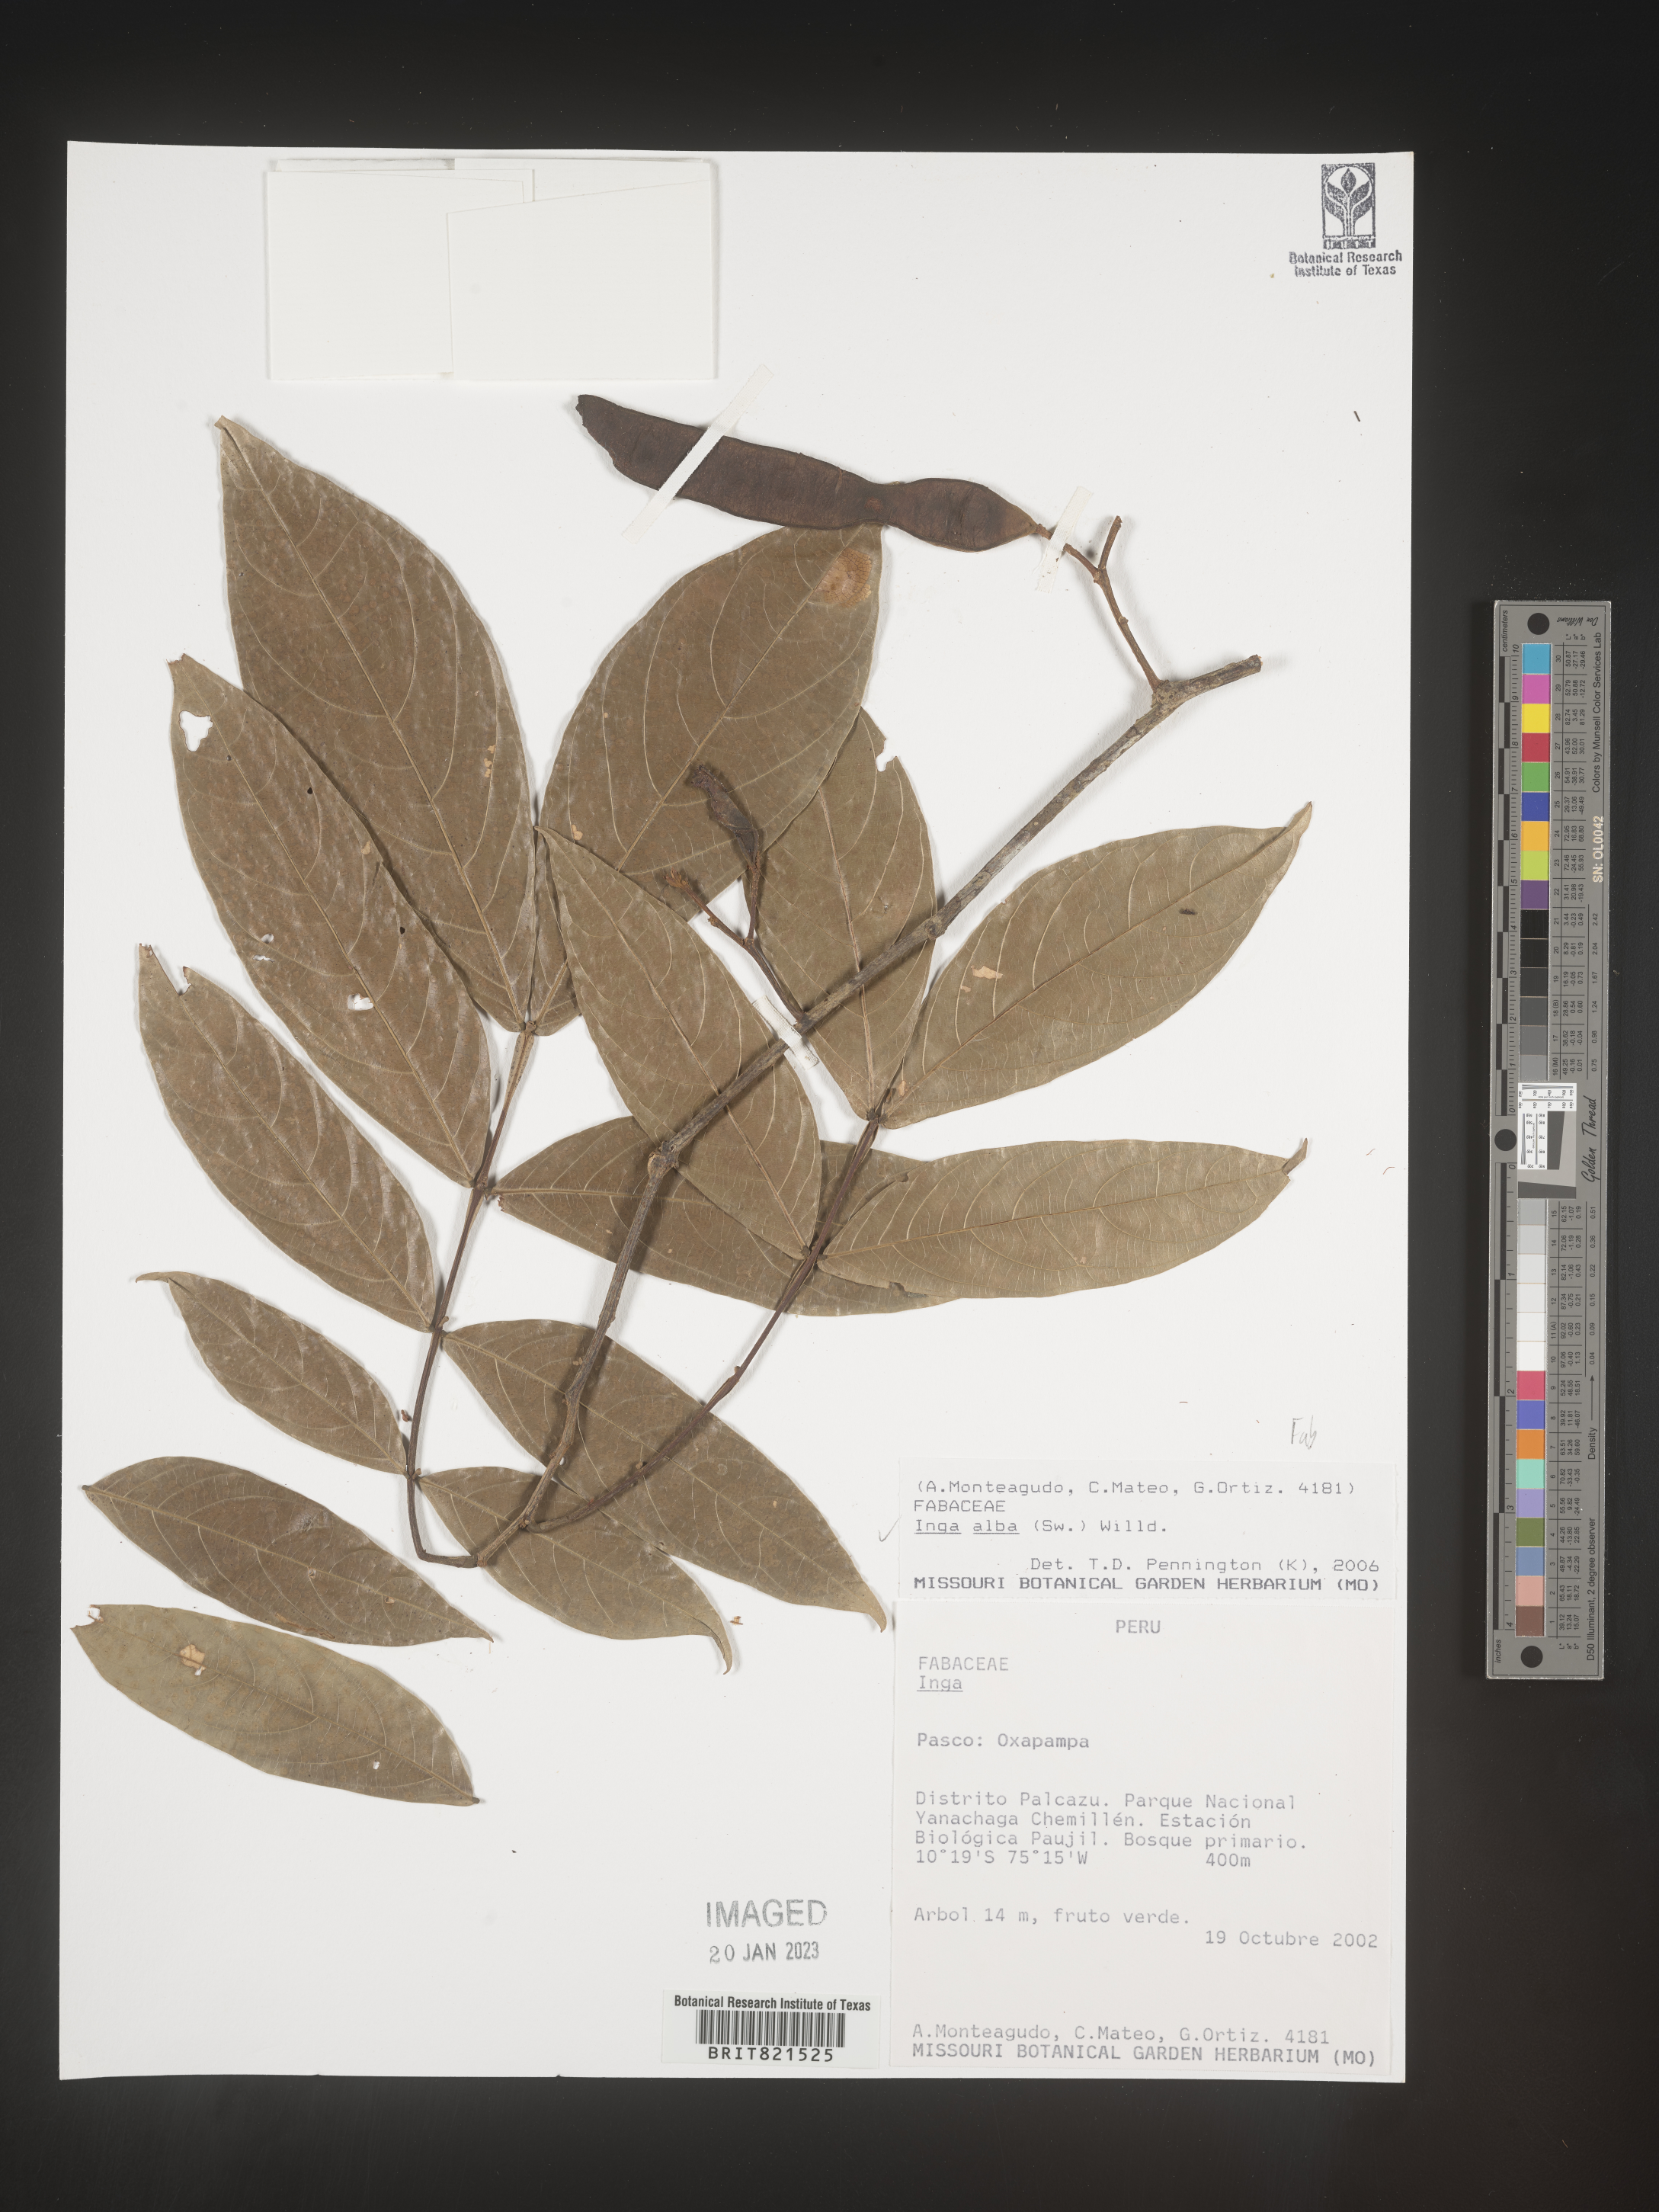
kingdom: Plantae
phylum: Tracheophyta
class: Magnoliopsida
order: Fabales
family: Fabaceae
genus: Inga
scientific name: Inga
